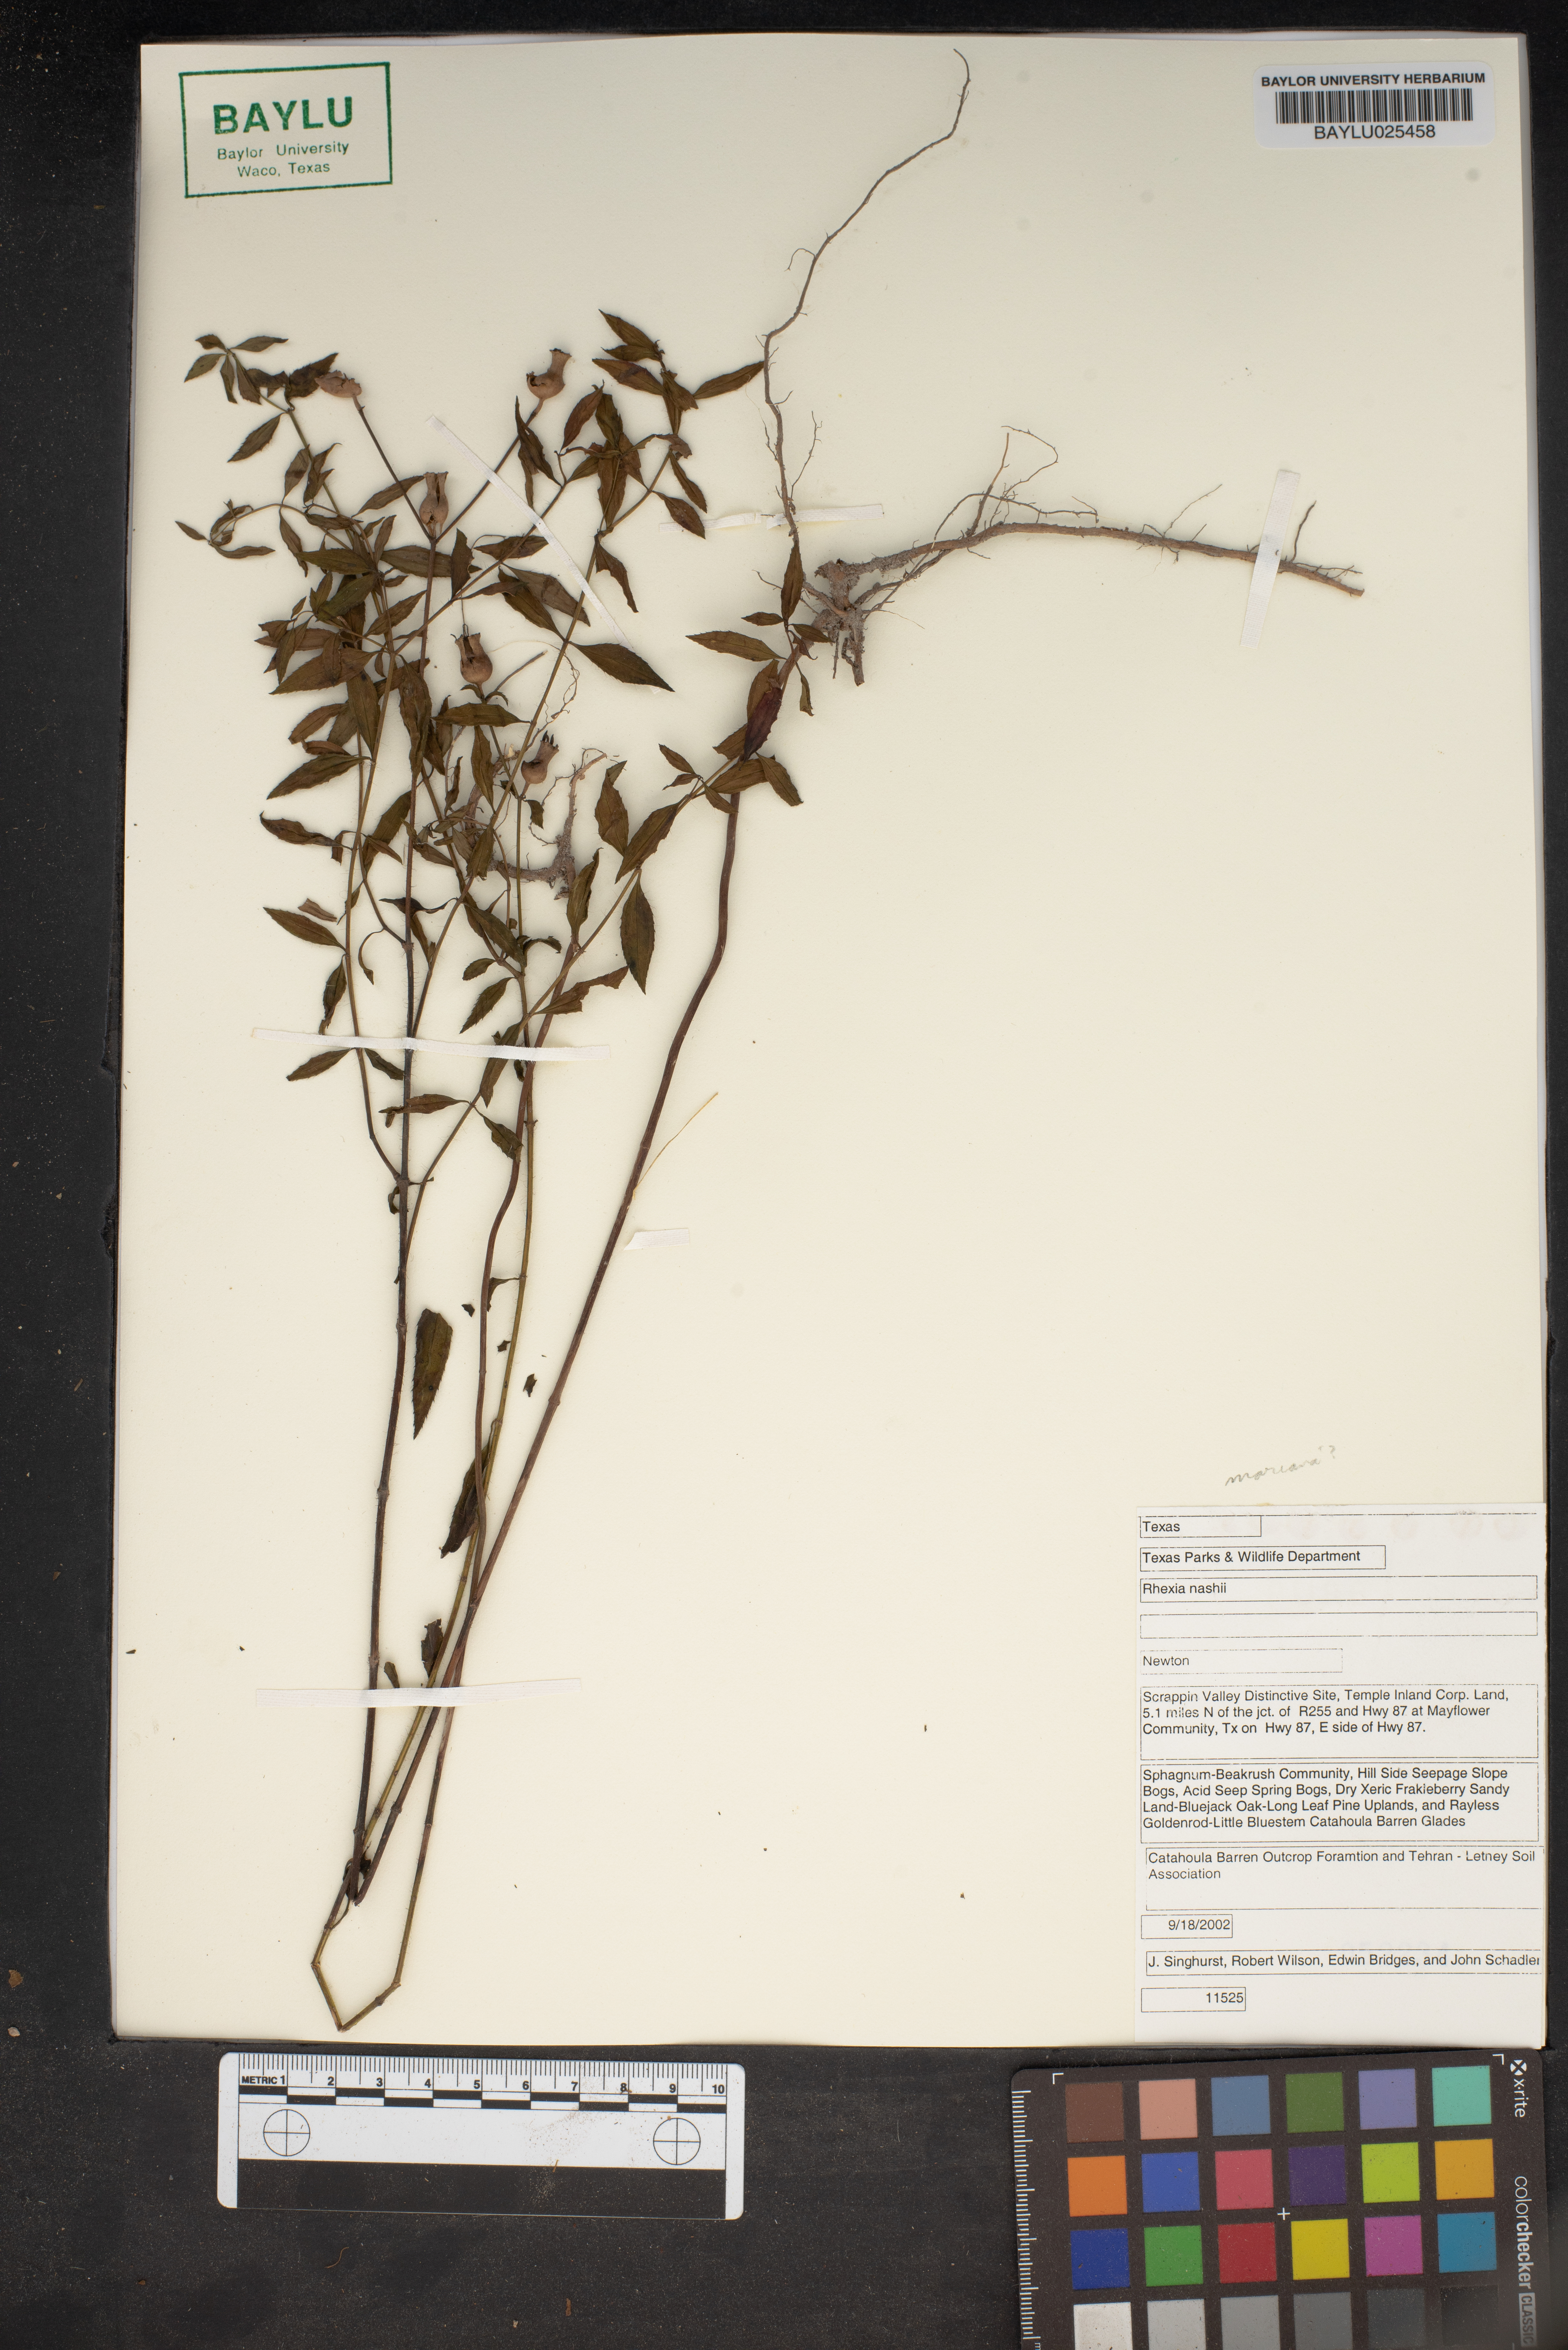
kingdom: Plantae
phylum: Tracheophyta
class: Magnoliopsida
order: Myrtales
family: Melastomataceae
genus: Rhexia
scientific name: Rhexia nashii
